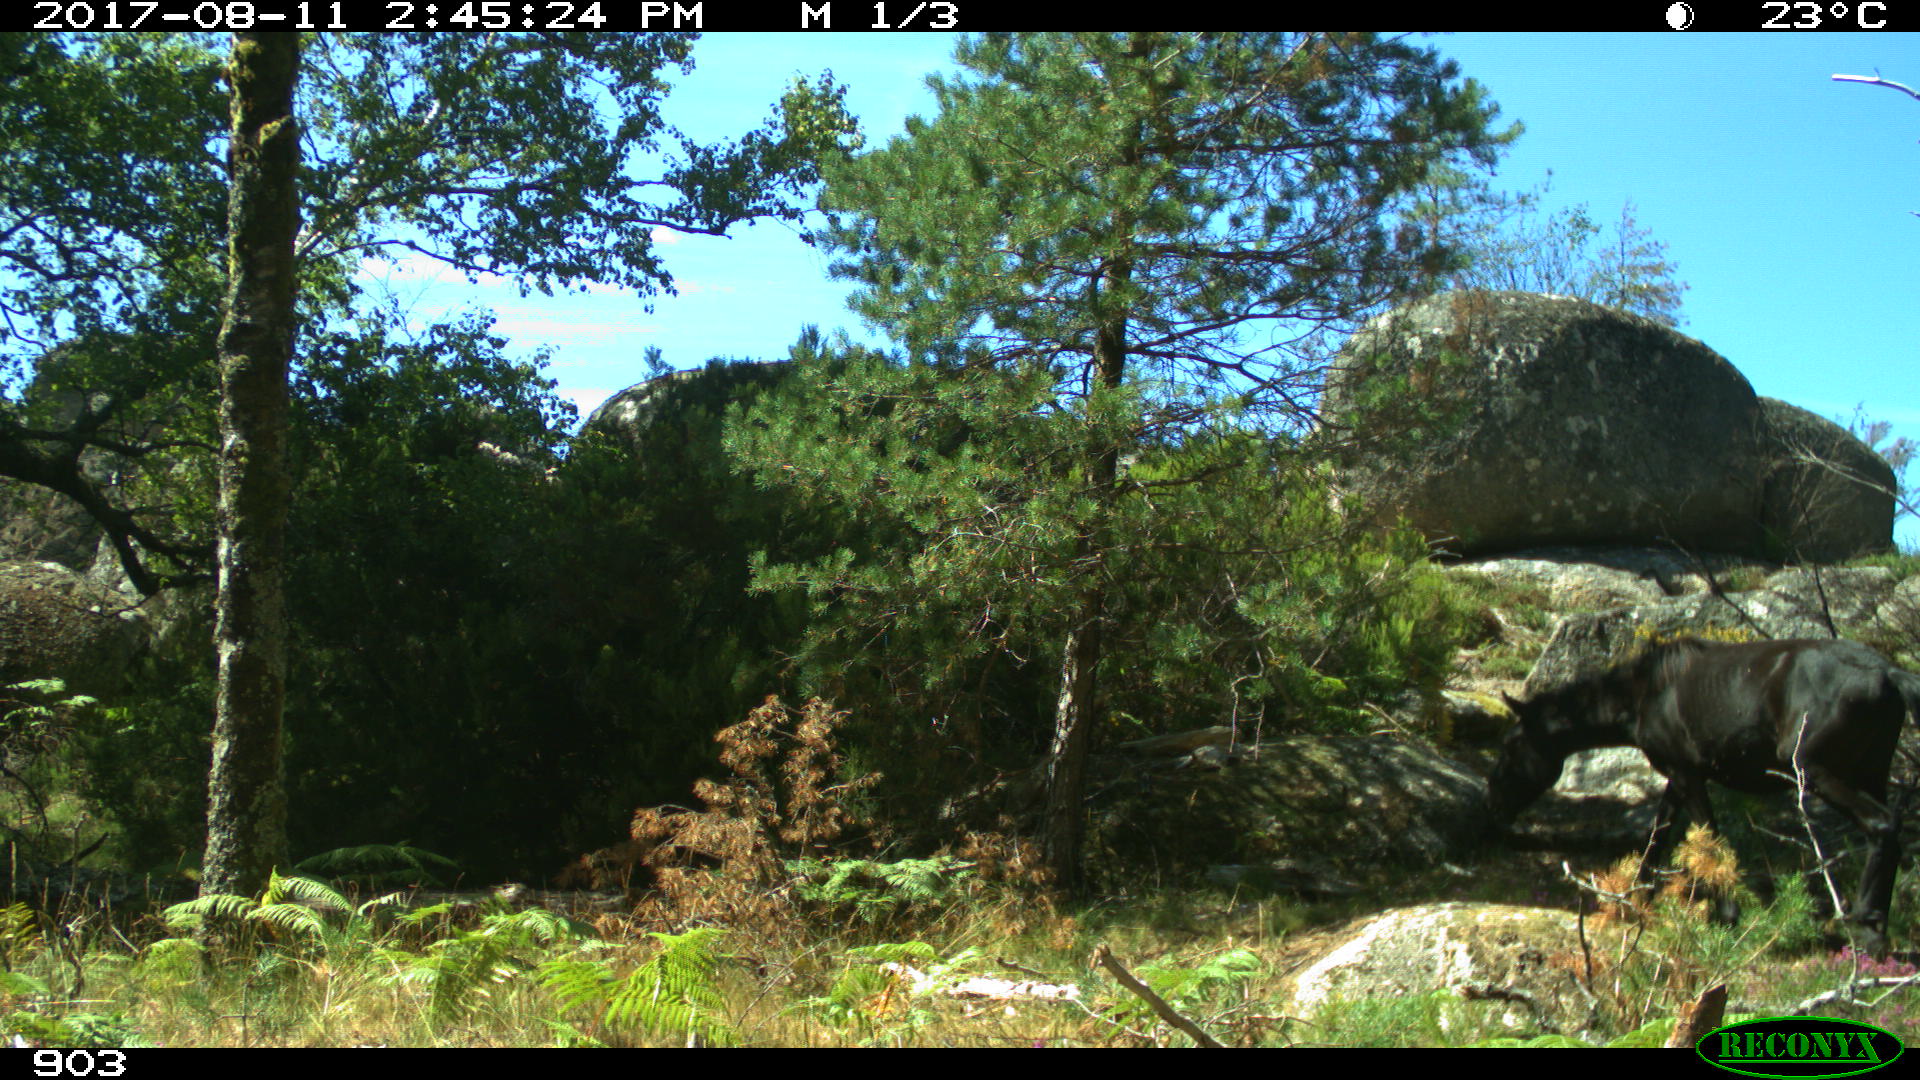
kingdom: Animalia
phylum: Chordata
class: Mammalia
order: Perissodactyla
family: Equidae
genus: Equus
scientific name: Equus caballus
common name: Horse
